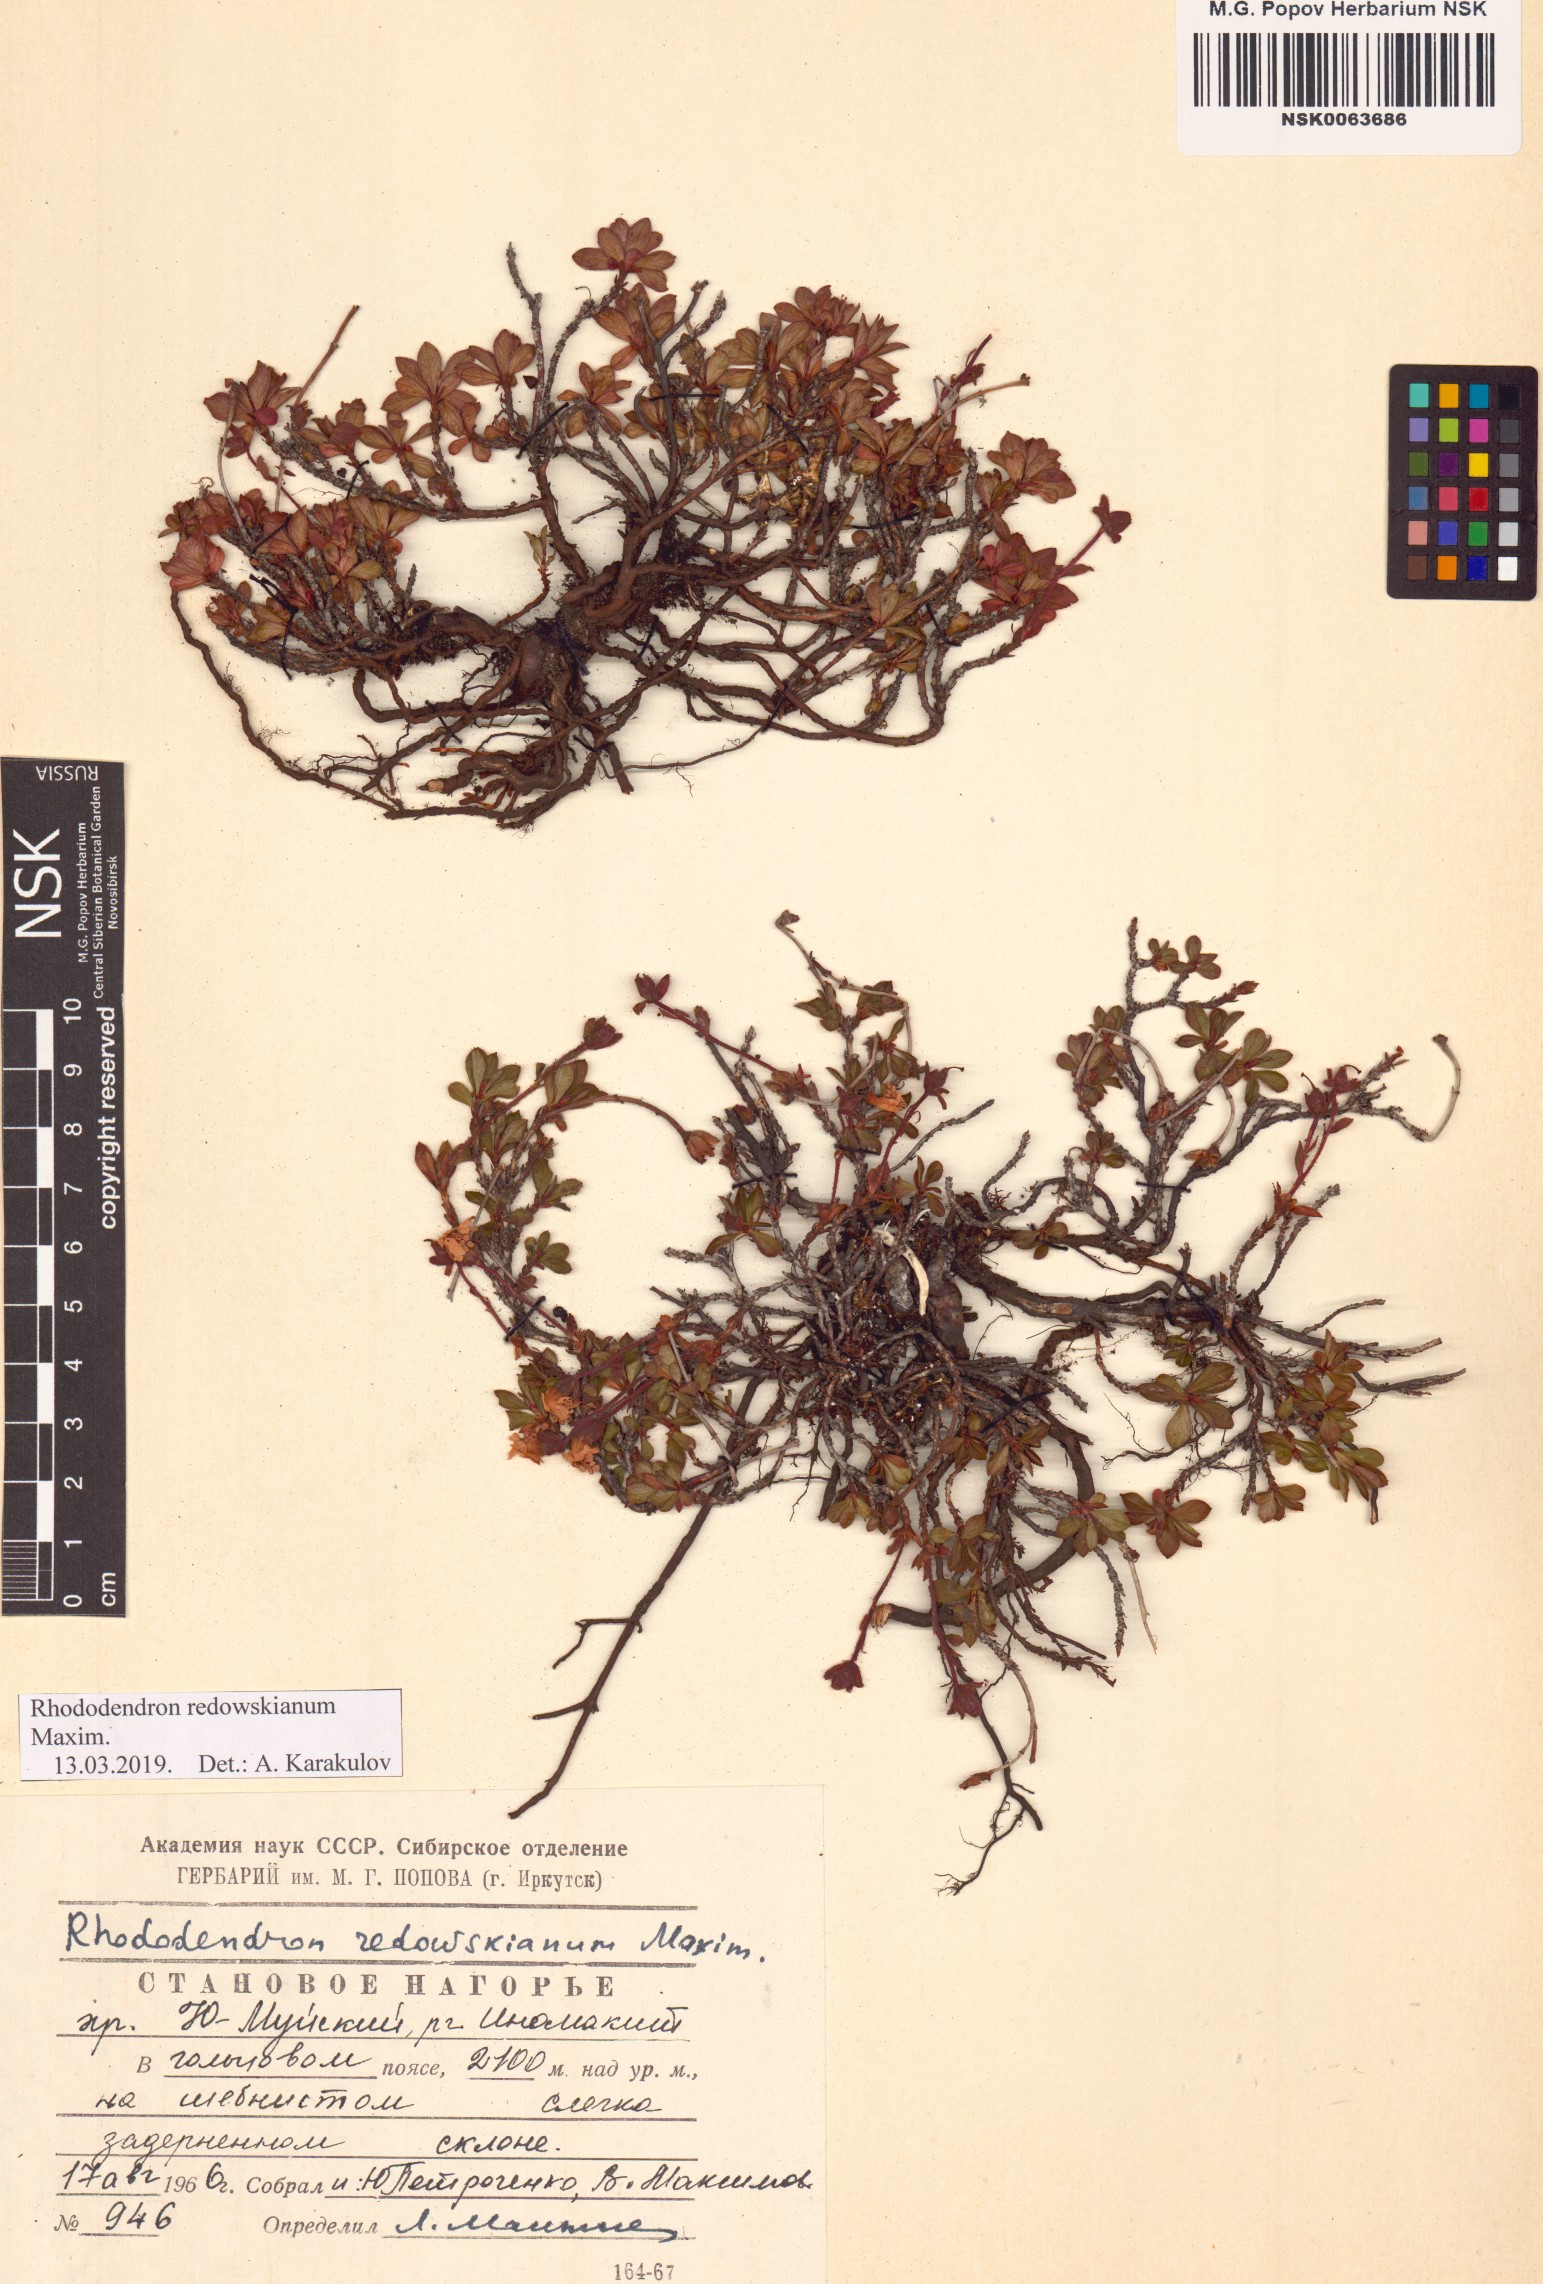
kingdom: Plantae
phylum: Tracheophyta
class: Magnoliopsida
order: Ericales
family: Ericaceae
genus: Rhododendron
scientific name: Rhododendron redowskianum
